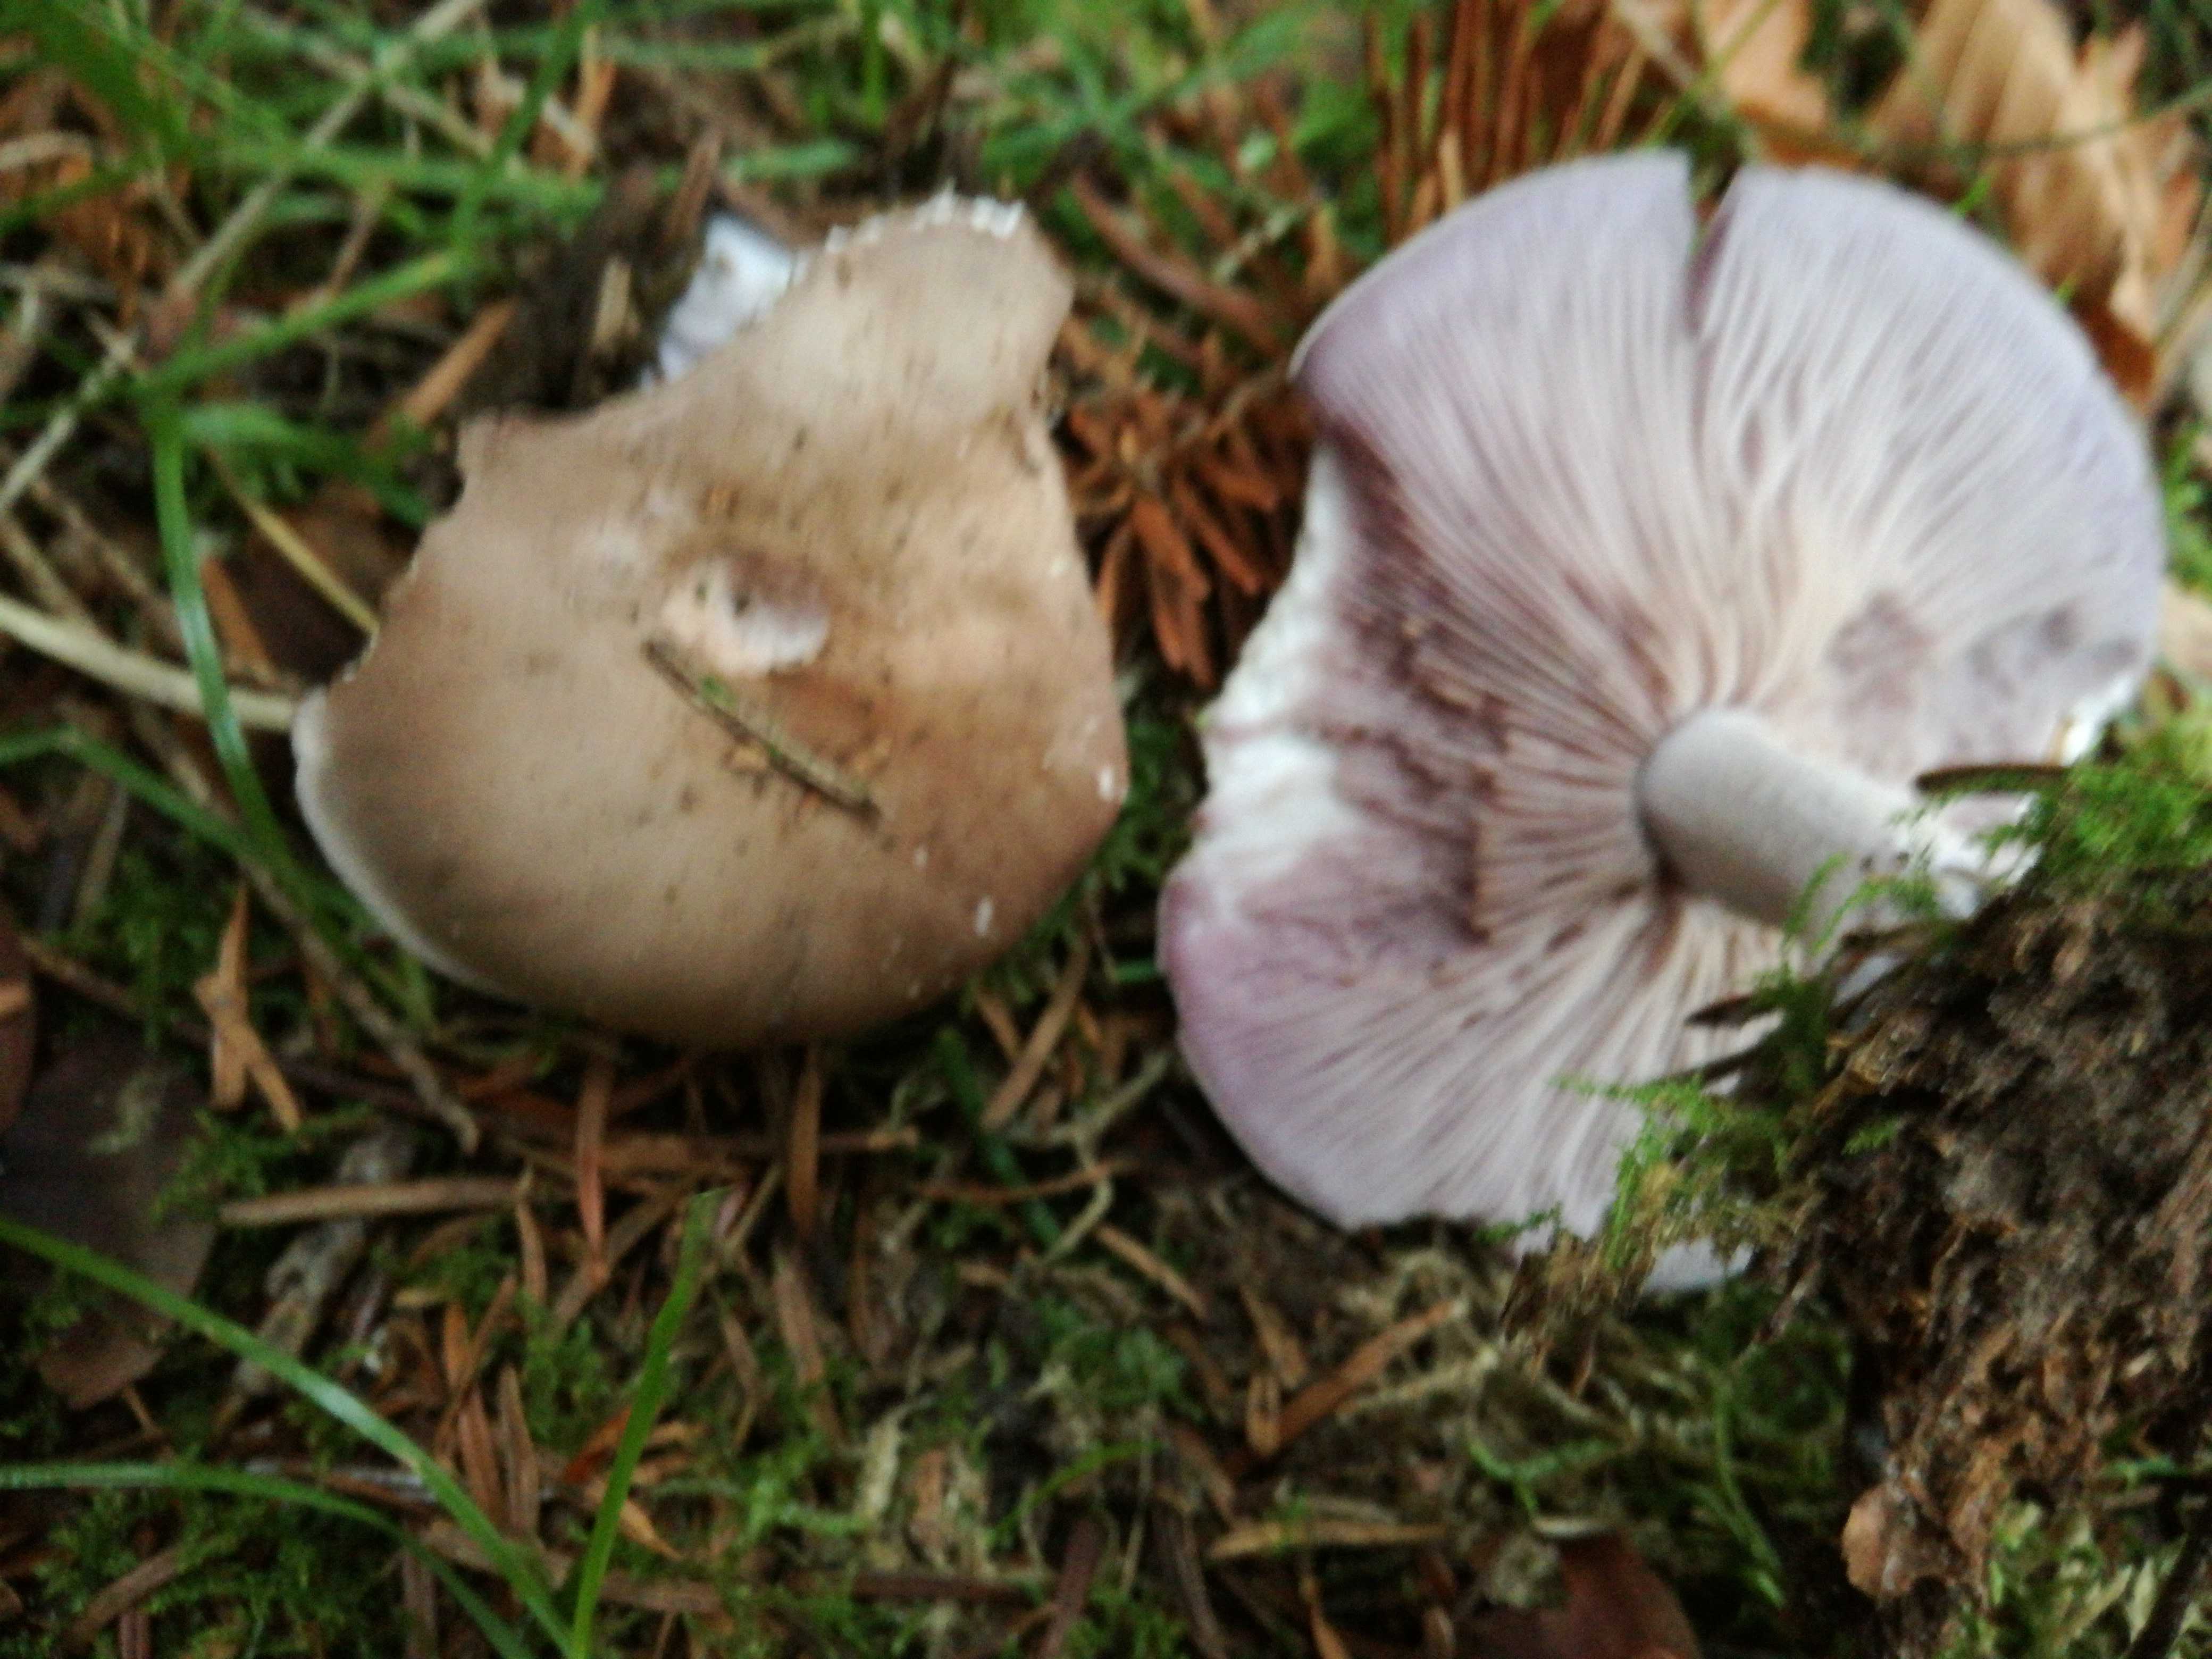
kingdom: Fungi
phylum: Basidiomycota
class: Agaricomycetes
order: Agaricales
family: Tricholomataceae
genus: Lepista
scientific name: Lepista nuda
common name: violet hekseringshat
